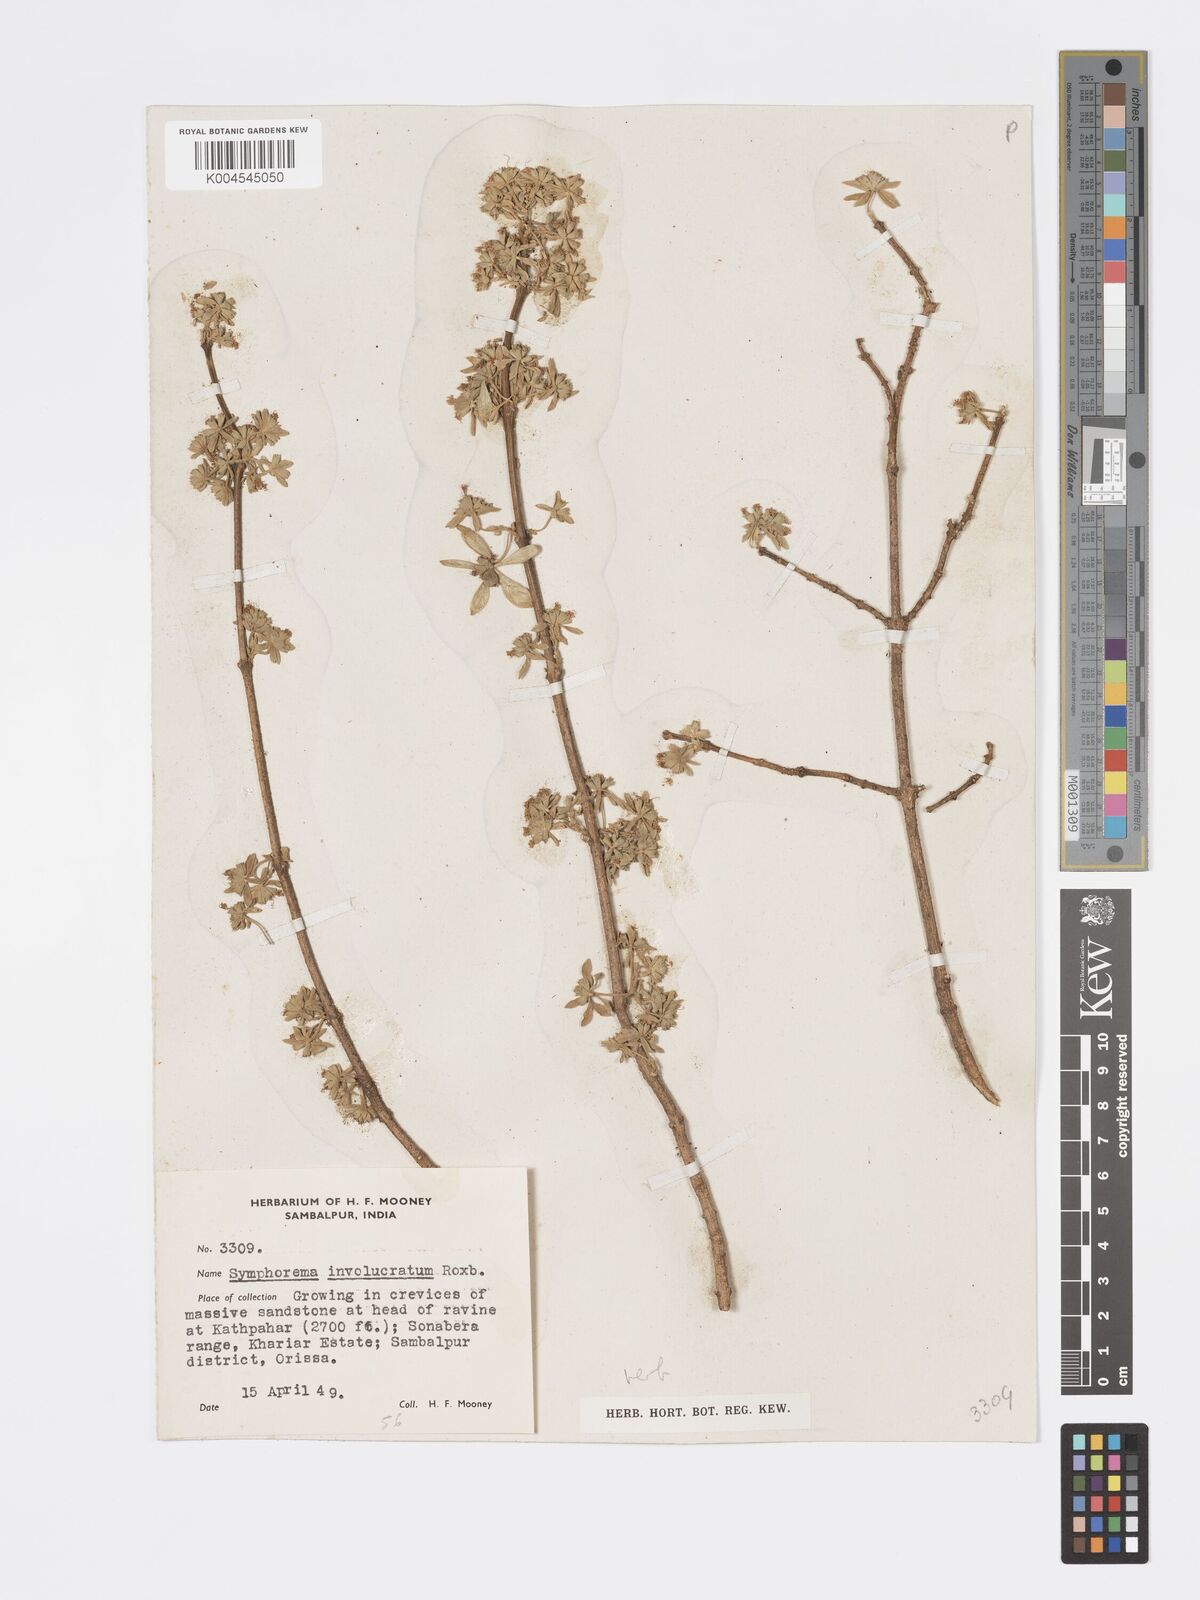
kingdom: Plantae
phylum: Tracheophyta
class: Magnoliopsida
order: Lamiales
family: Lamiaceae
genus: Symphorema
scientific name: Symphorema involucratum
